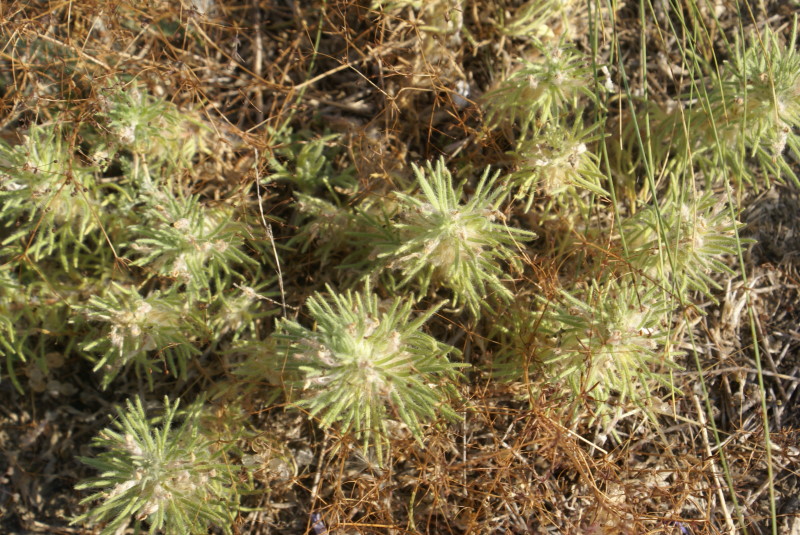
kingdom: Plantae
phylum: Tracheophyta
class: Magnoliopsida
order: Lamiales
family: Lamiaceae
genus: Ajuga
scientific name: Ajuga chamaepitys
